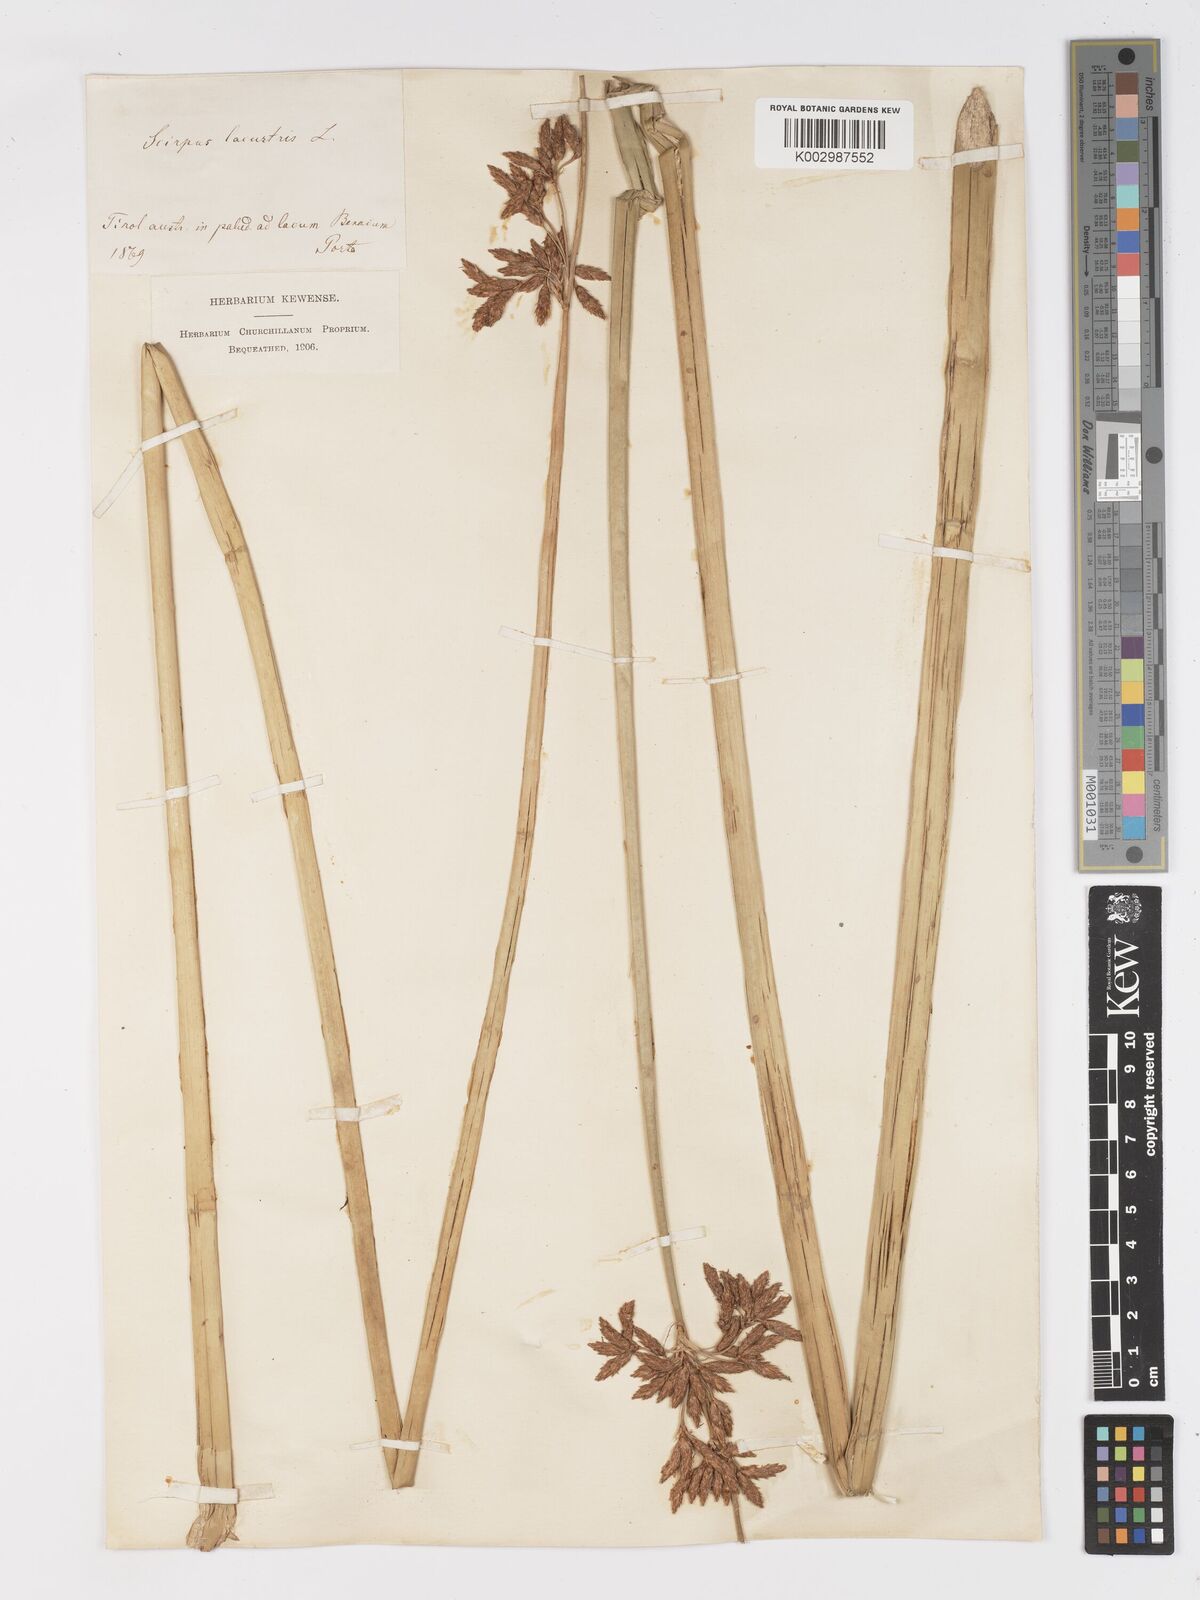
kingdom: Plantae
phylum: Tracheophyta
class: Liliopsida
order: Poales
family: Cyperaceae
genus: Schoenoplectus
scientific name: Schoenoplectus lacustris
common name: Common club-rush
